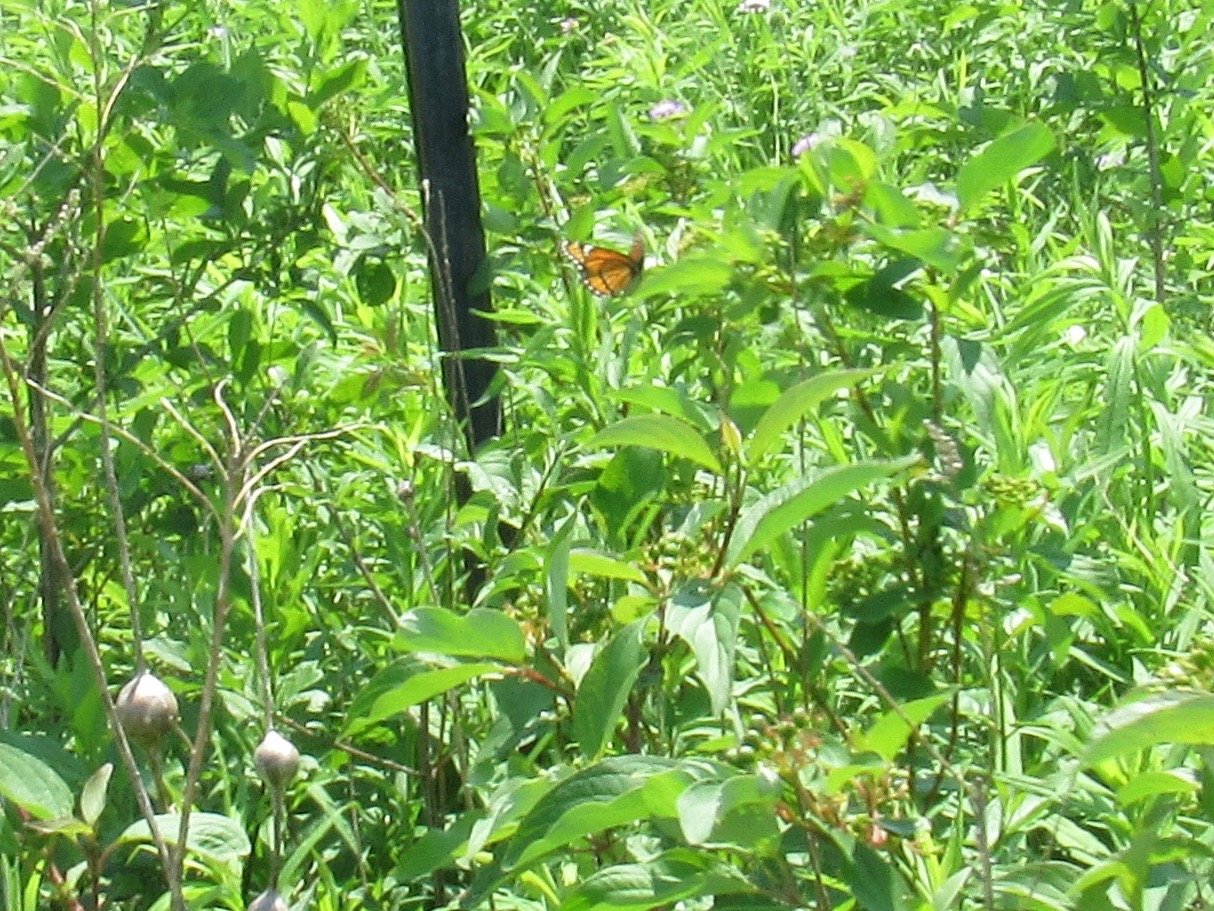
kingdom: Animalia
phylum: Arthropoda
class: Insecta
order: Lepidoptera
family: Nymphalidae
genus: Limenitis
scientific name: Limenitis archippus
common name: Viceroy
